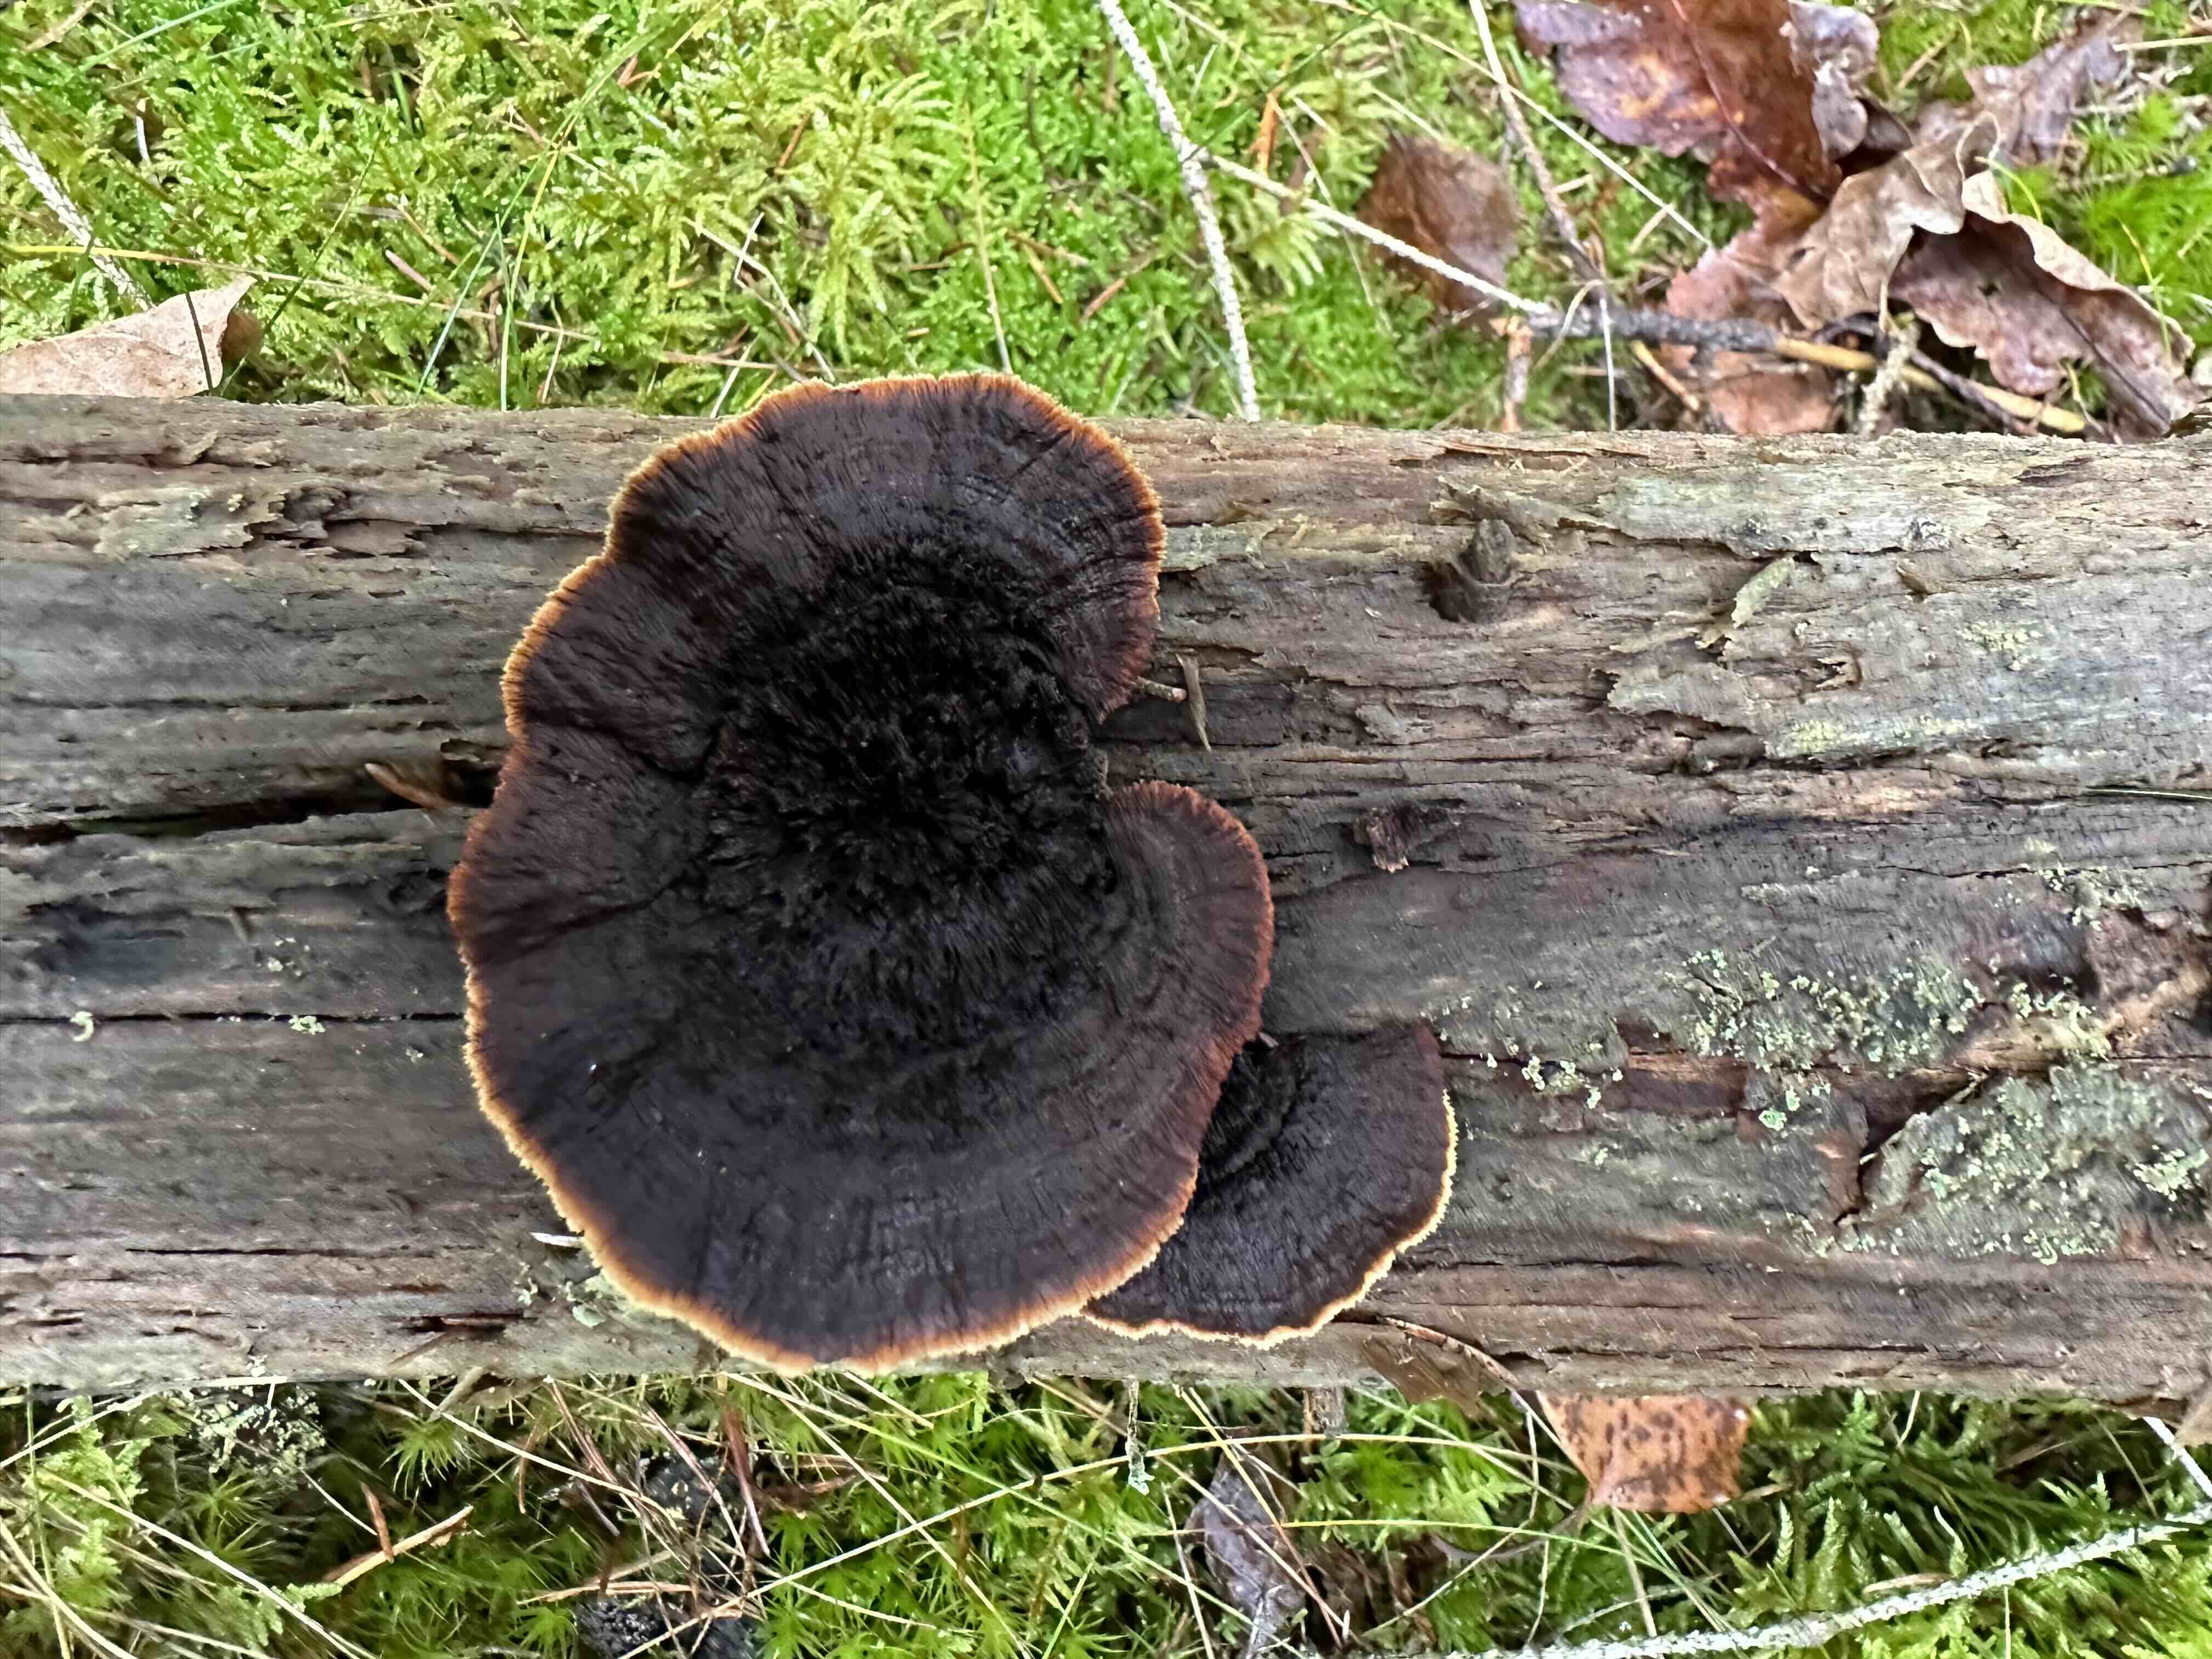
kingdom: Fungi
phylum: Basidiomycota
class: Agaricomycetes
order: Gloeophyllales
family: Gloeophyllaceae
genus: Gloeophyllum
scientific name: Gloeophyllum sepiarium
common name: fyrre-korkhat
